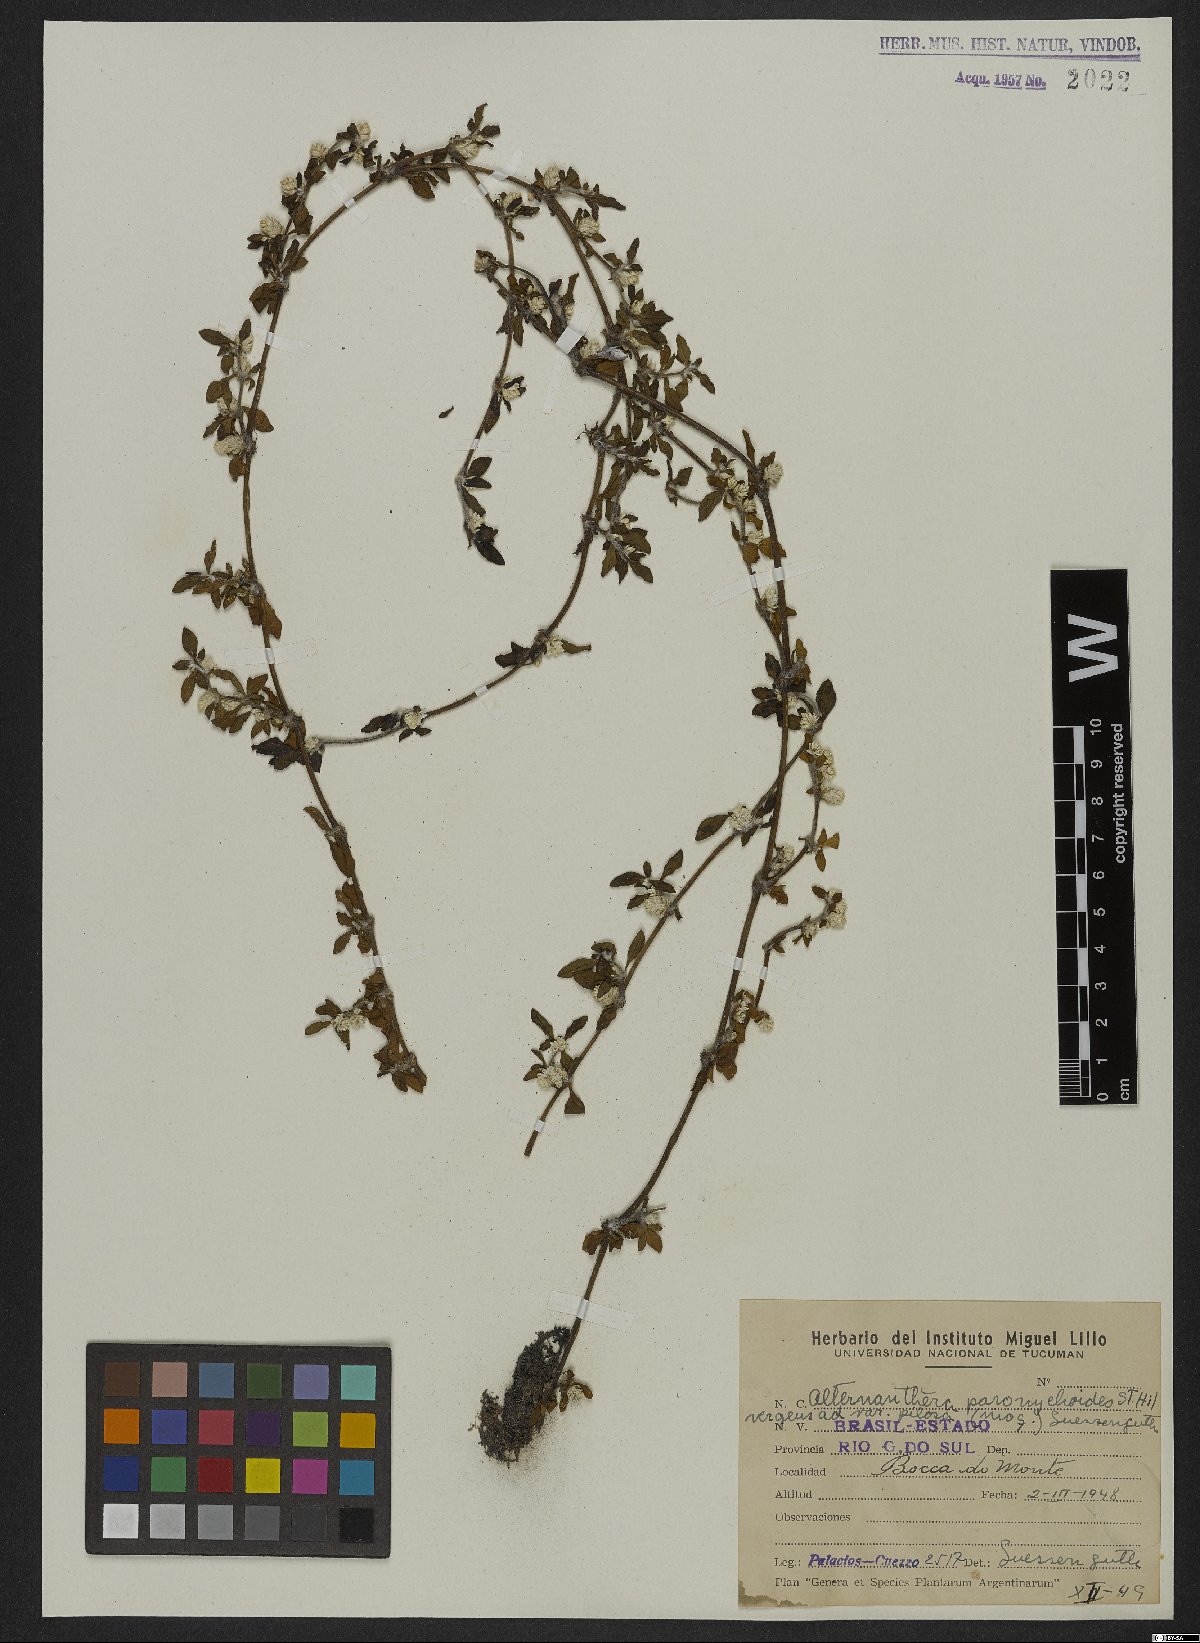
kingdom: Plantae
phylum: Tracheophyta
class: Magnoliopsida
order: Caryophyllales
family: Amaranthaceae
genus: Alternanthera
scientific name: Alternanthera paronychioides
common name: Smooth joyweed
